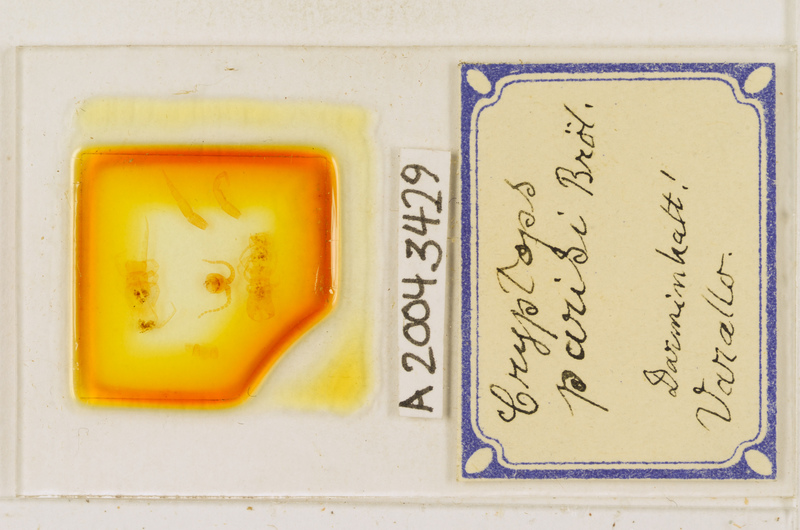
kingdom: Animalia
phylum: Arthropoda
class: Chilopoda
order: Scolopendromorpha
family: Cryptopidae
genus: Cryptops
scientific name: Cryptops parisi
